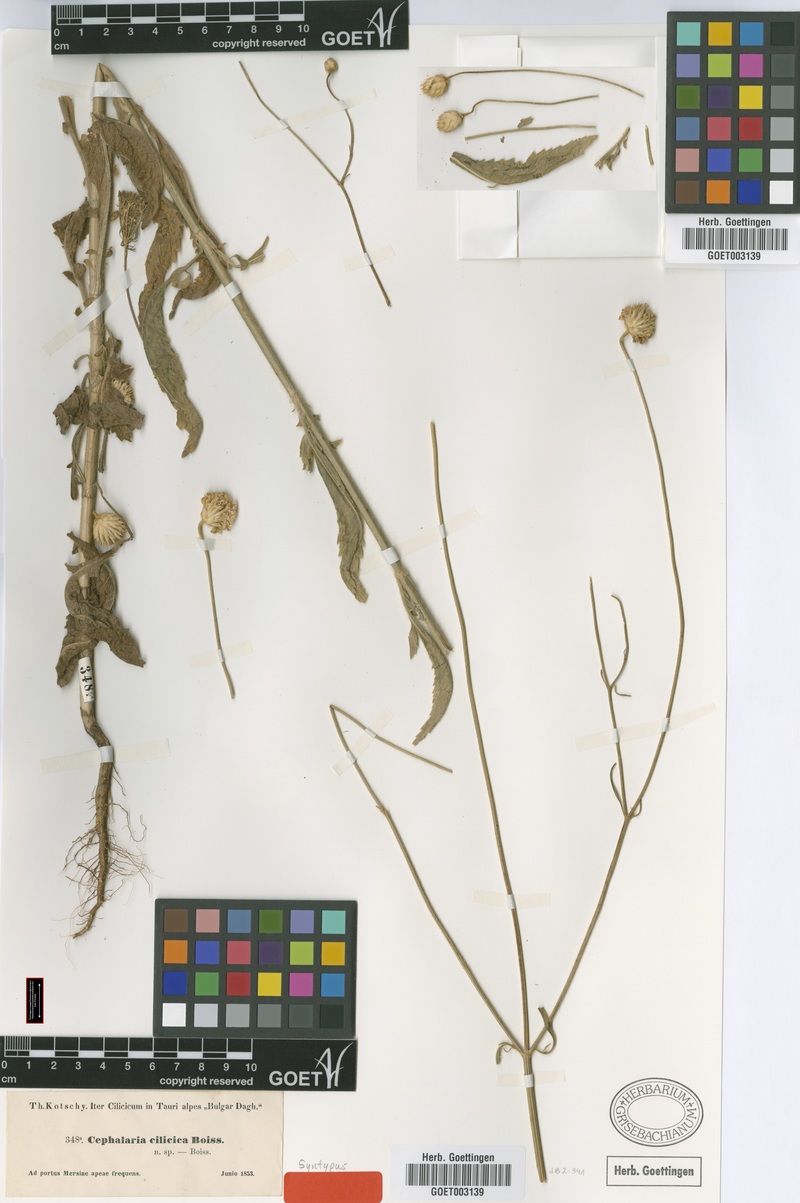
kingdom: Plantae
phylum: Tracheophyta
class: Magnoliopsida
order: Dipsacales
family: Caprifoliaceae
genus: Cephalaria
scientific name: Cephalaria cilicica
